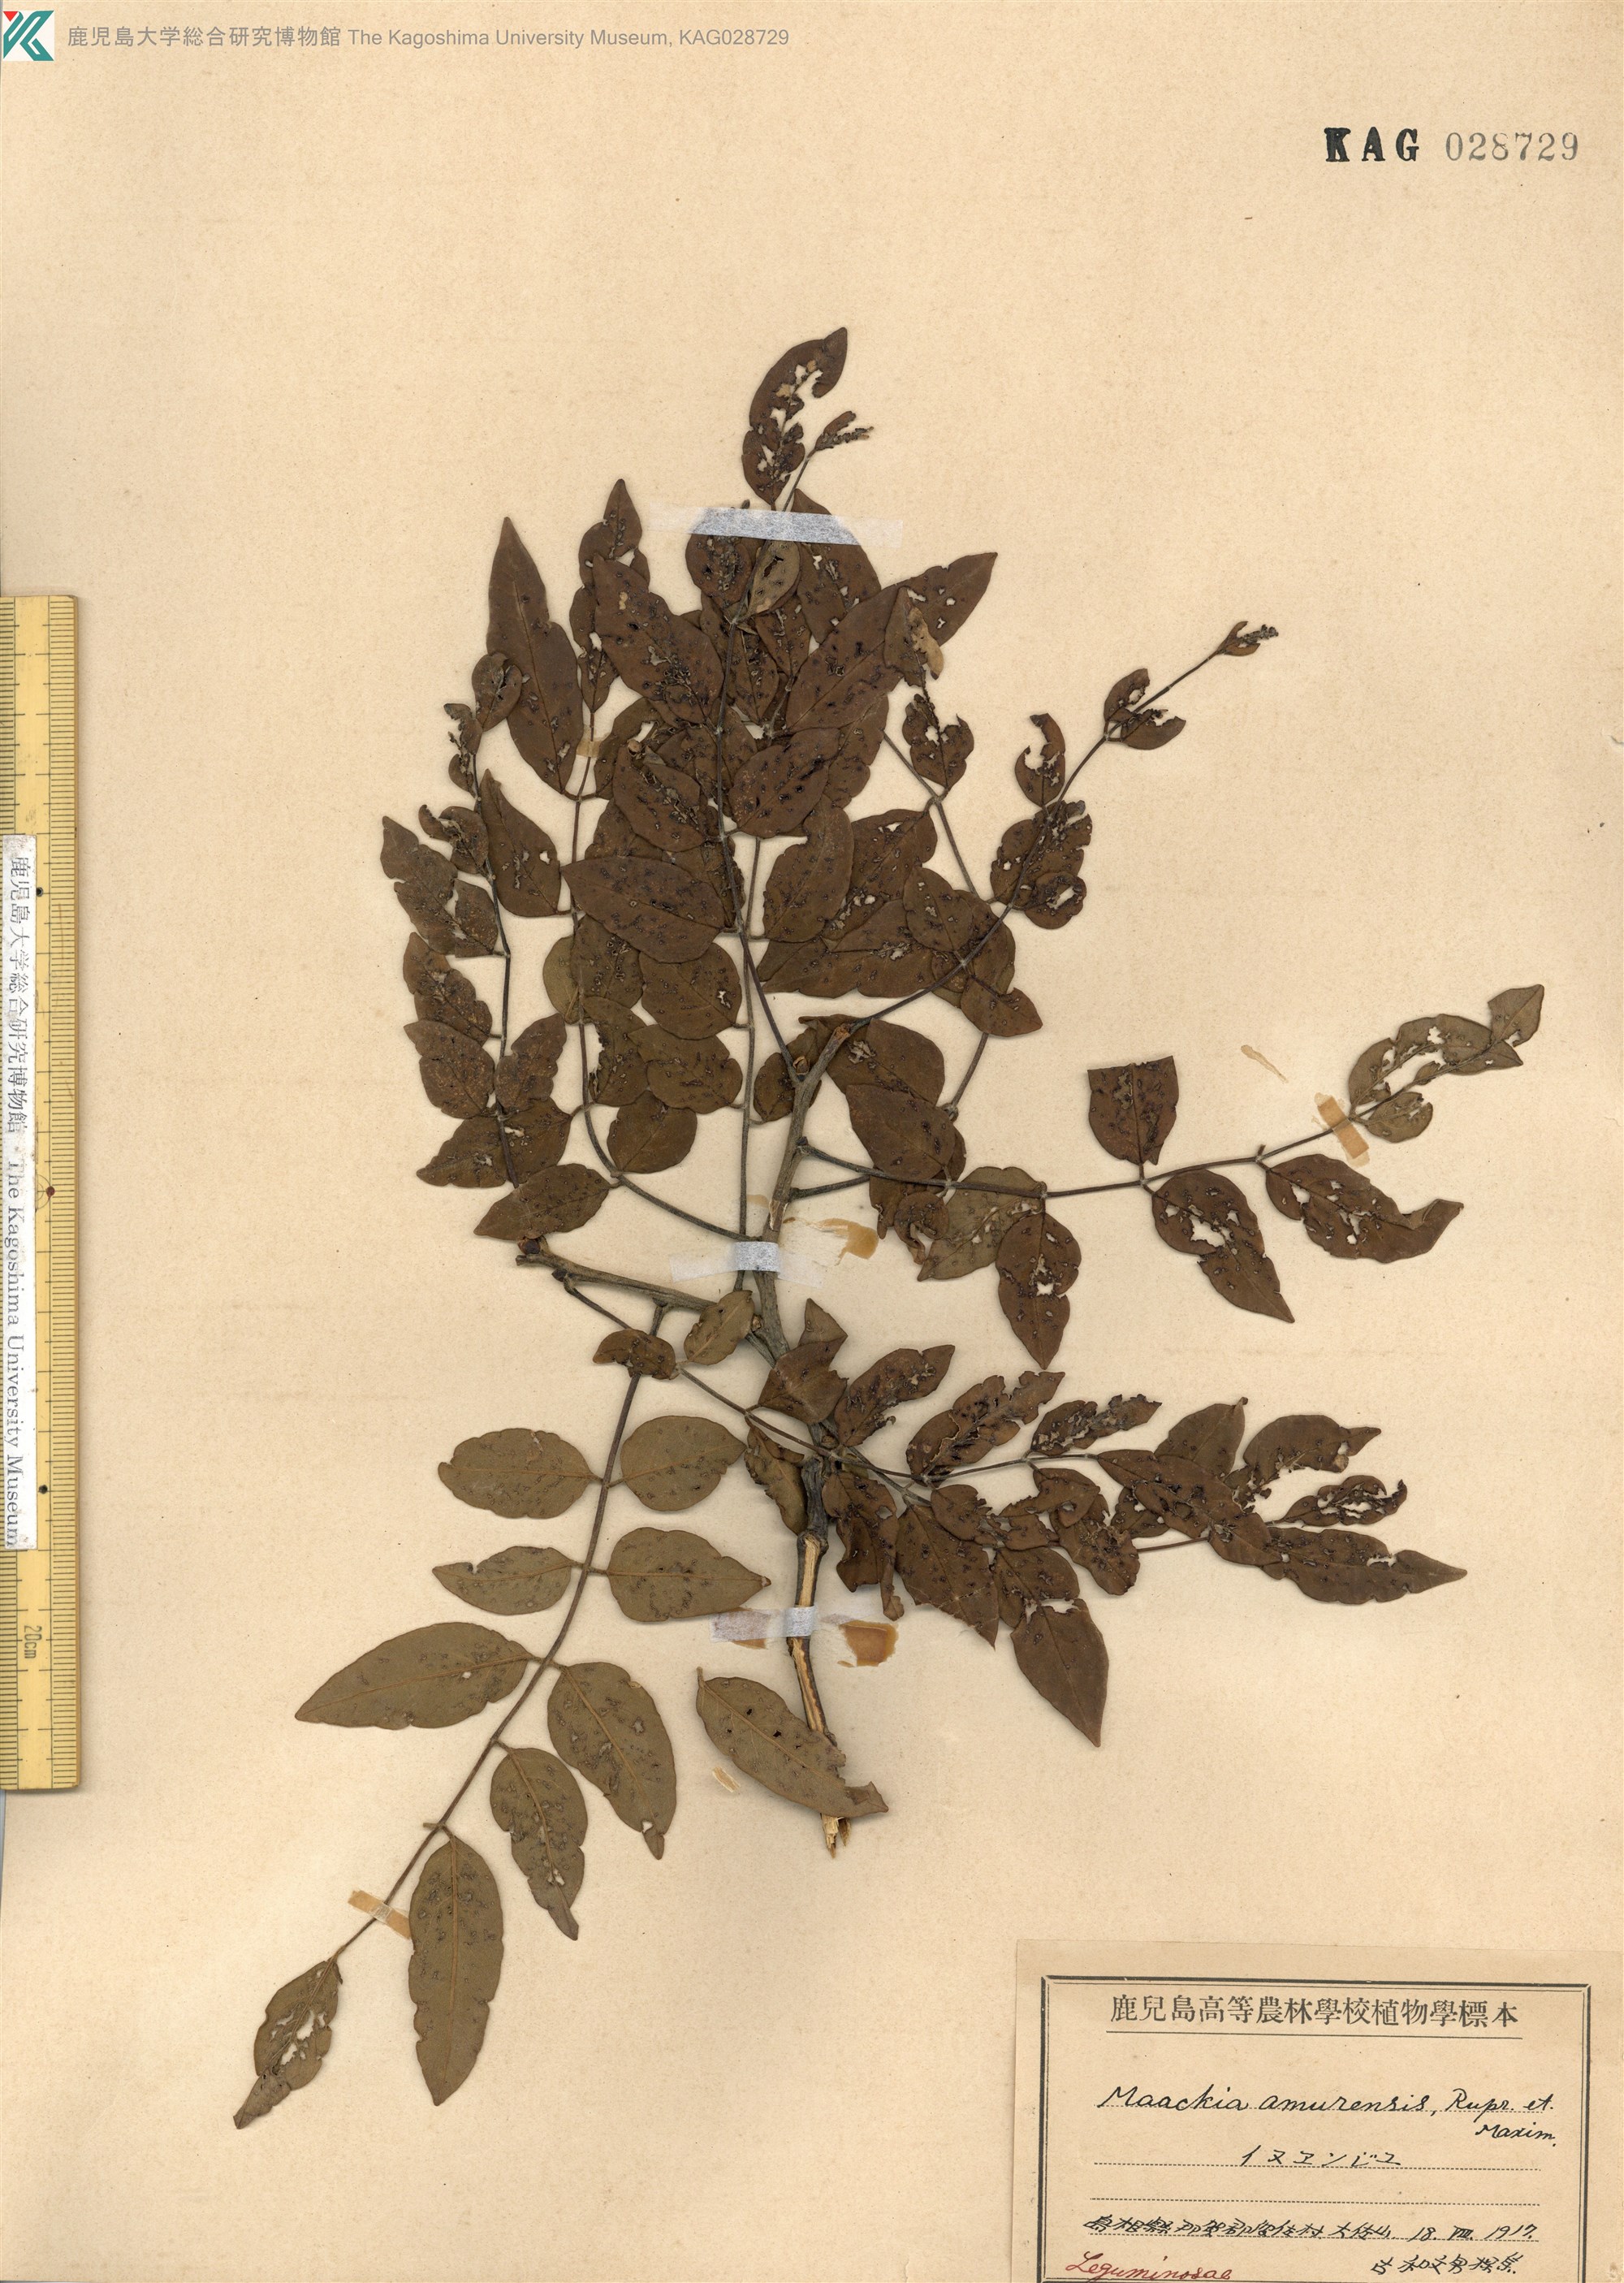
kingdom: Plantae
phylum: Tracheophyta
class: Magnoliopsida
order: Fabales
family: Fabaceae
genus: Maackia
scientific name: Maackia amurensis
